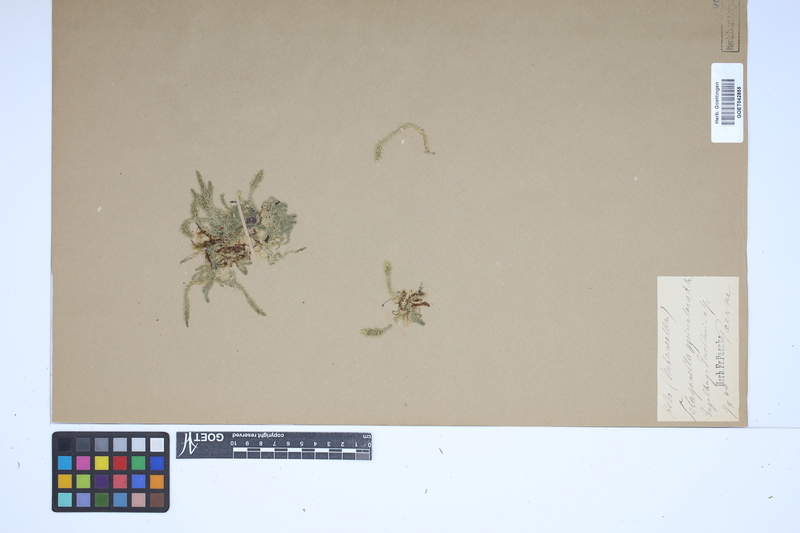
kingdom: Plantae
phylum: Tracheophyta
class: Lycopodiopsida
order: Selaginellales
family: Selaginellaceae
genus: Selaginella
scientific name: Selaginella selaginoides
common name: Prickly mountain-moss
